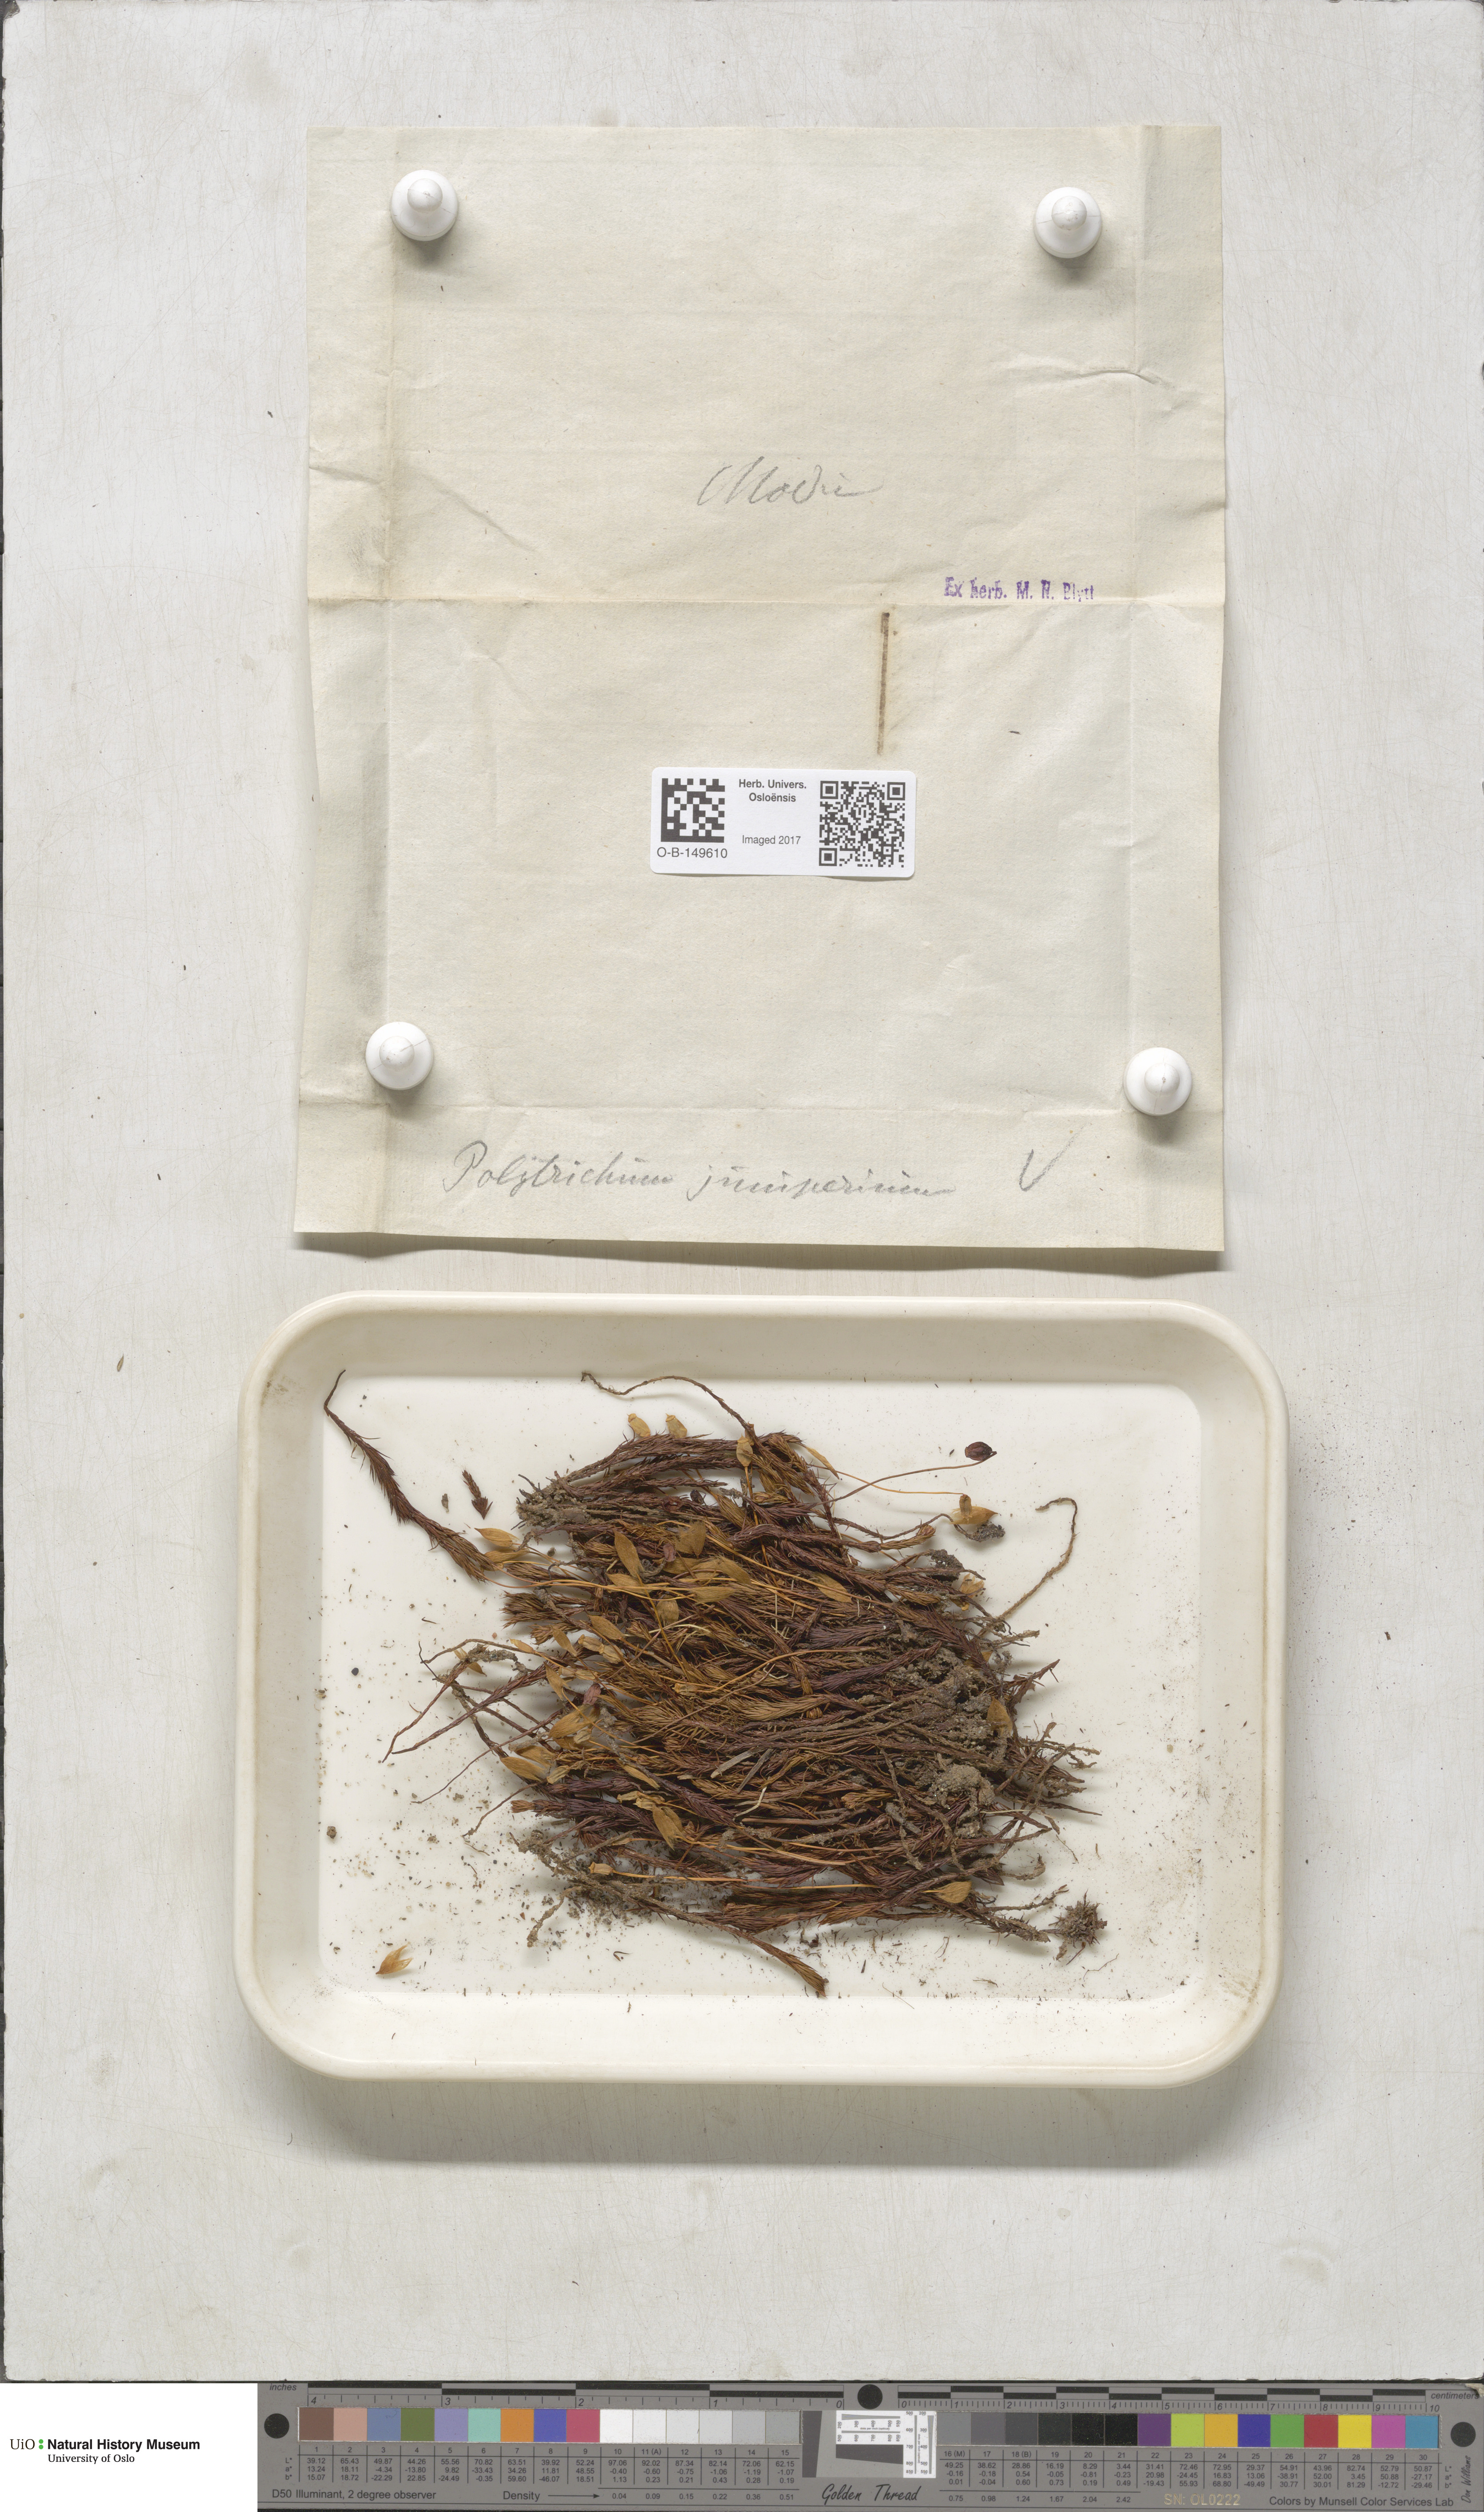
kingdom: Plantae
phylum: Bryophyta
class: Polytrichopsida
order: Polytrichales
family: Polytrichaceae
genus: Polytrichum
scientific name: Polytrichum juniperinum
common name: Juniper haircap moss
